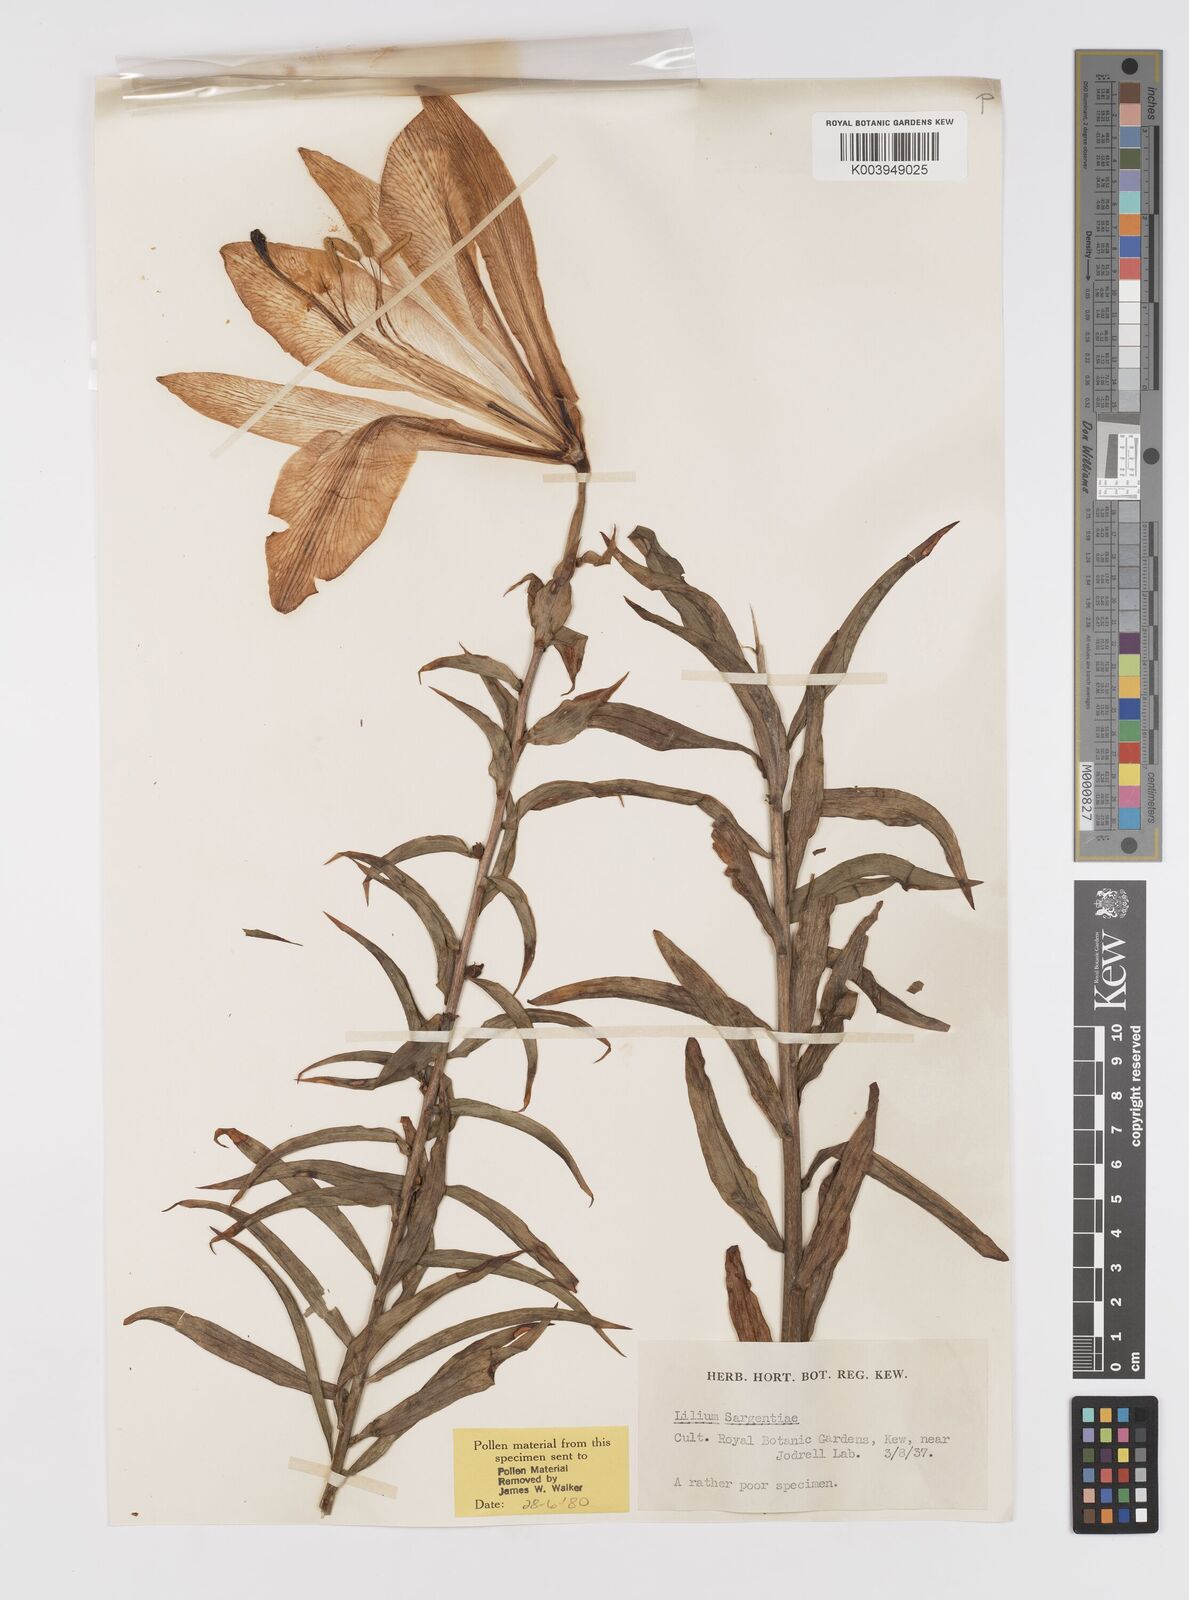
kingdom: Plantae
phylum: Tracheophyta
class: Liliopsida
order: Liliales
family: Liliaceae
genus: Lilium
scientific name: Lilium sargentiae
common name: Sargent lily
